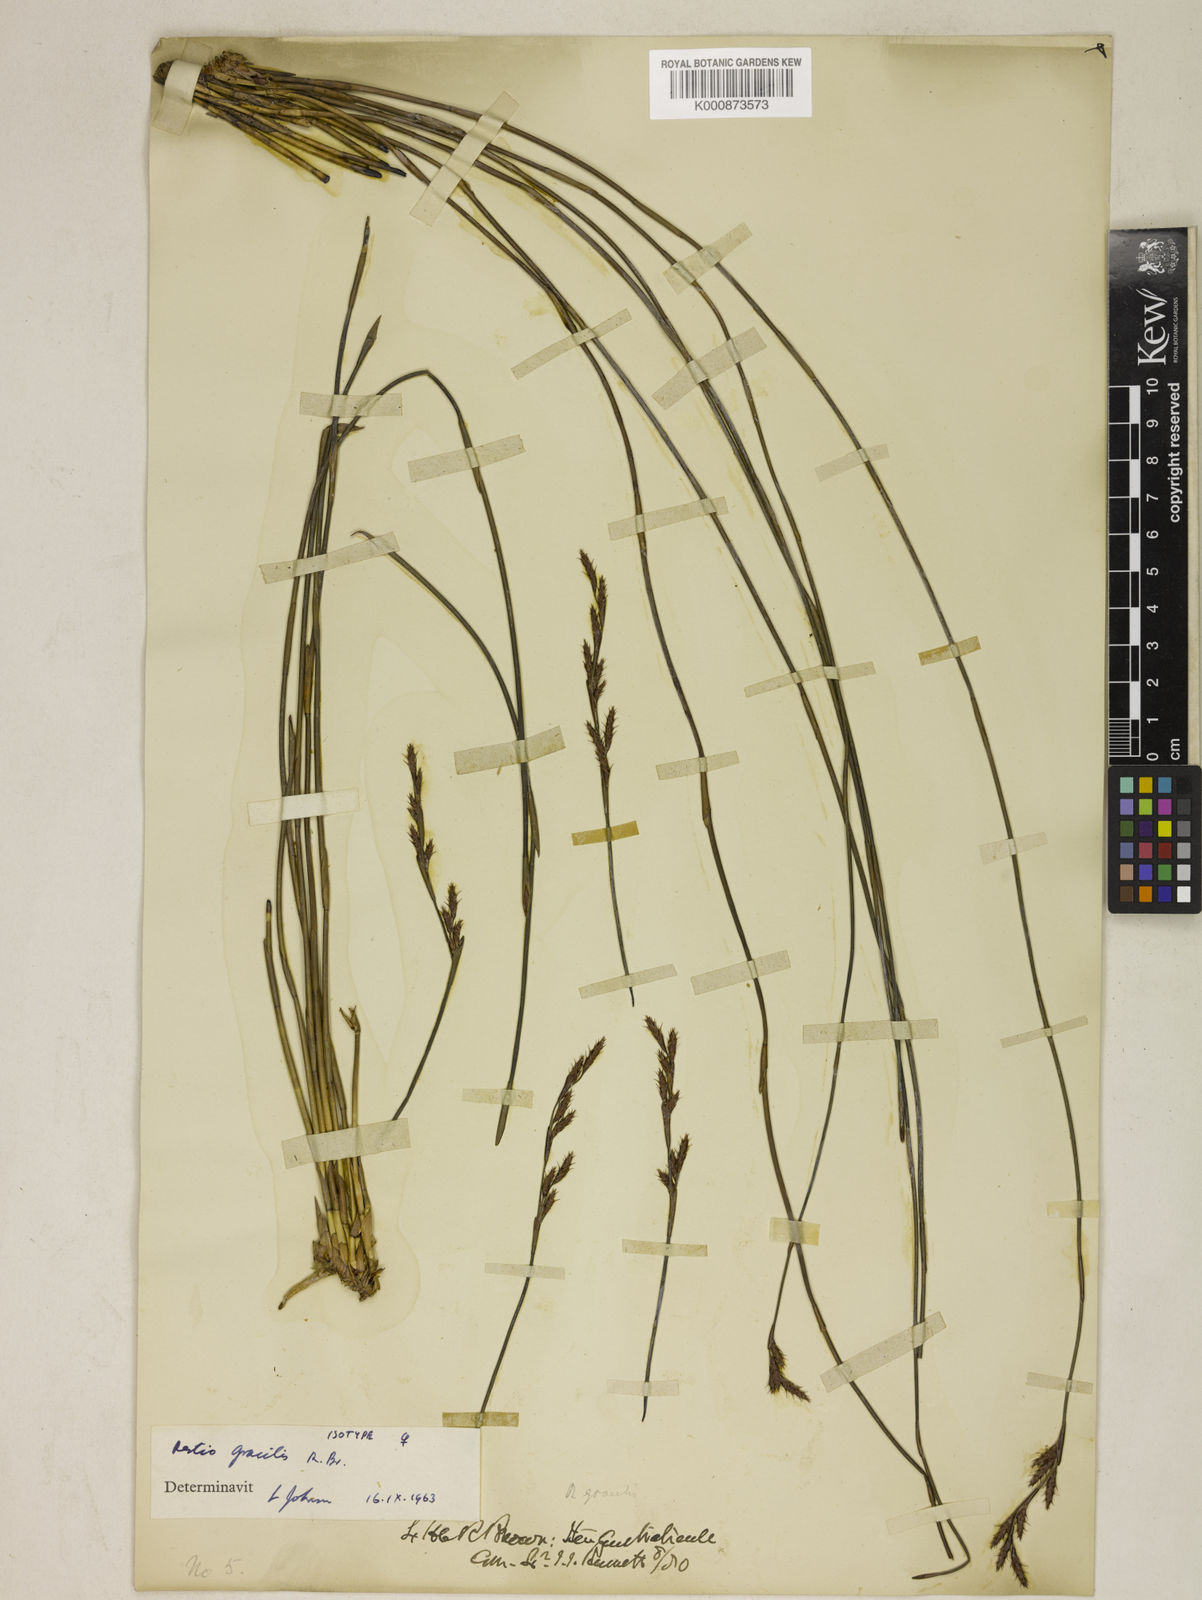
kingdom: Plantae
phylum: Tracheophyta
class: Liliopsida
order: Poales
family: Restionaceae
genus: Baloskion
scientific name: Baloskion gracile
